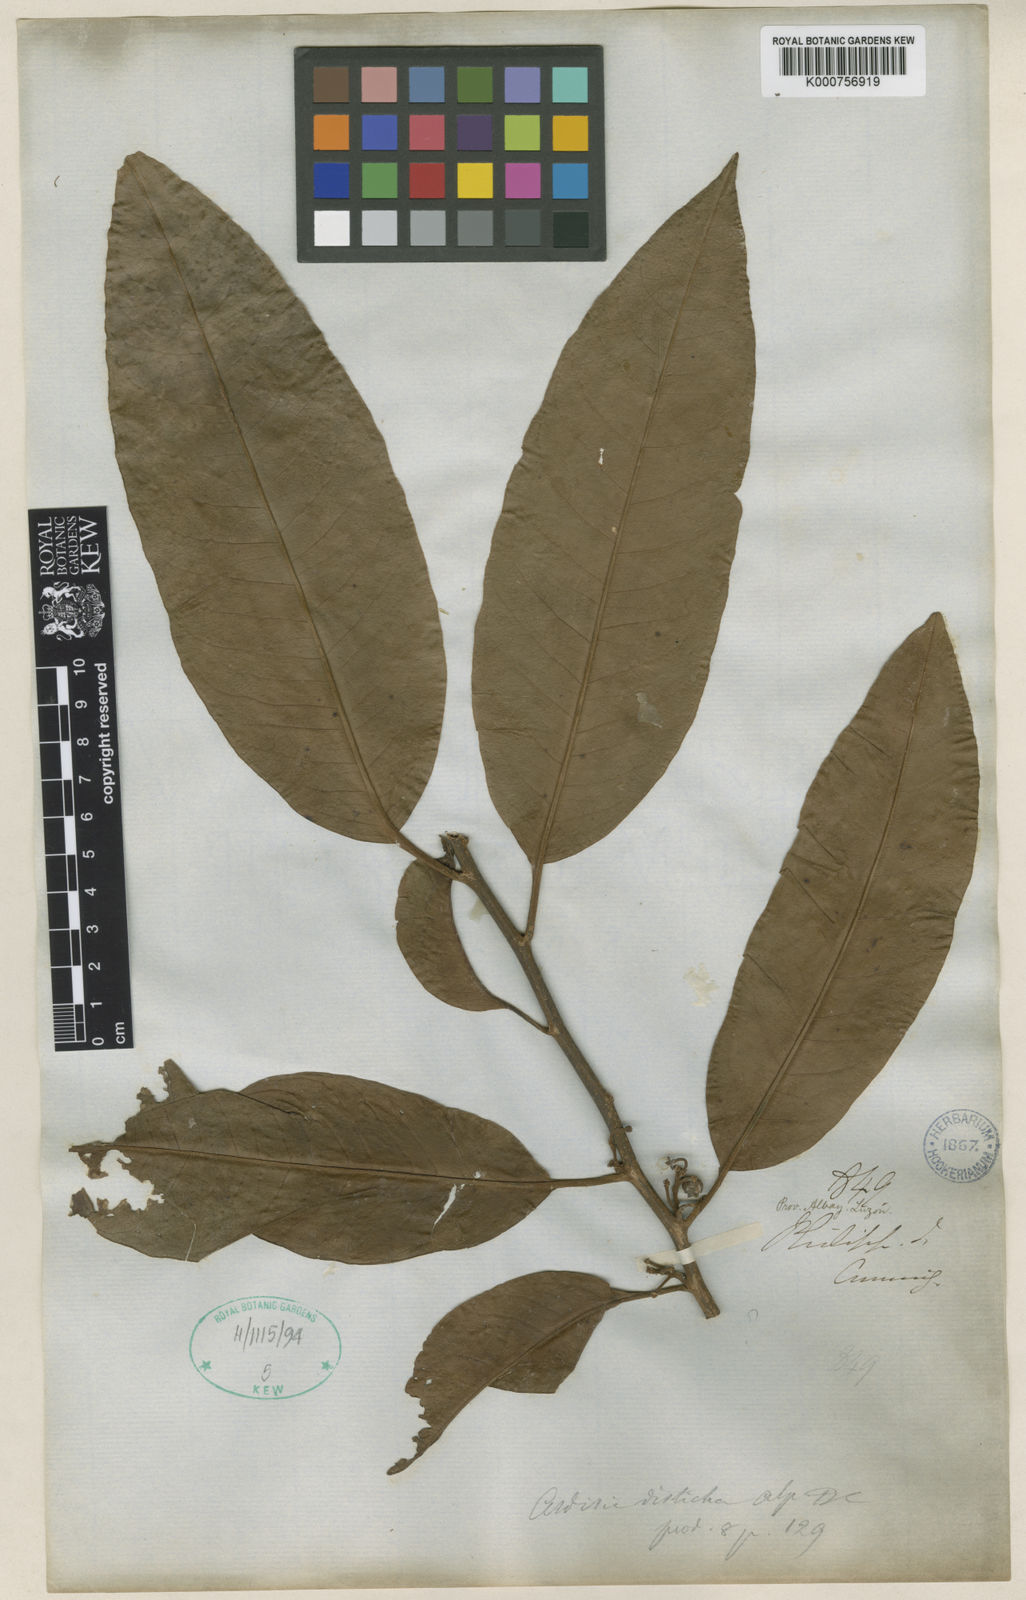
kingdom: Plantae
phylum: Tracheophyta
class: Magnoliopsida
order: Ericales
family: Primulaceae
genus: Ardisia
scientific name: Ardisia tomentosa
